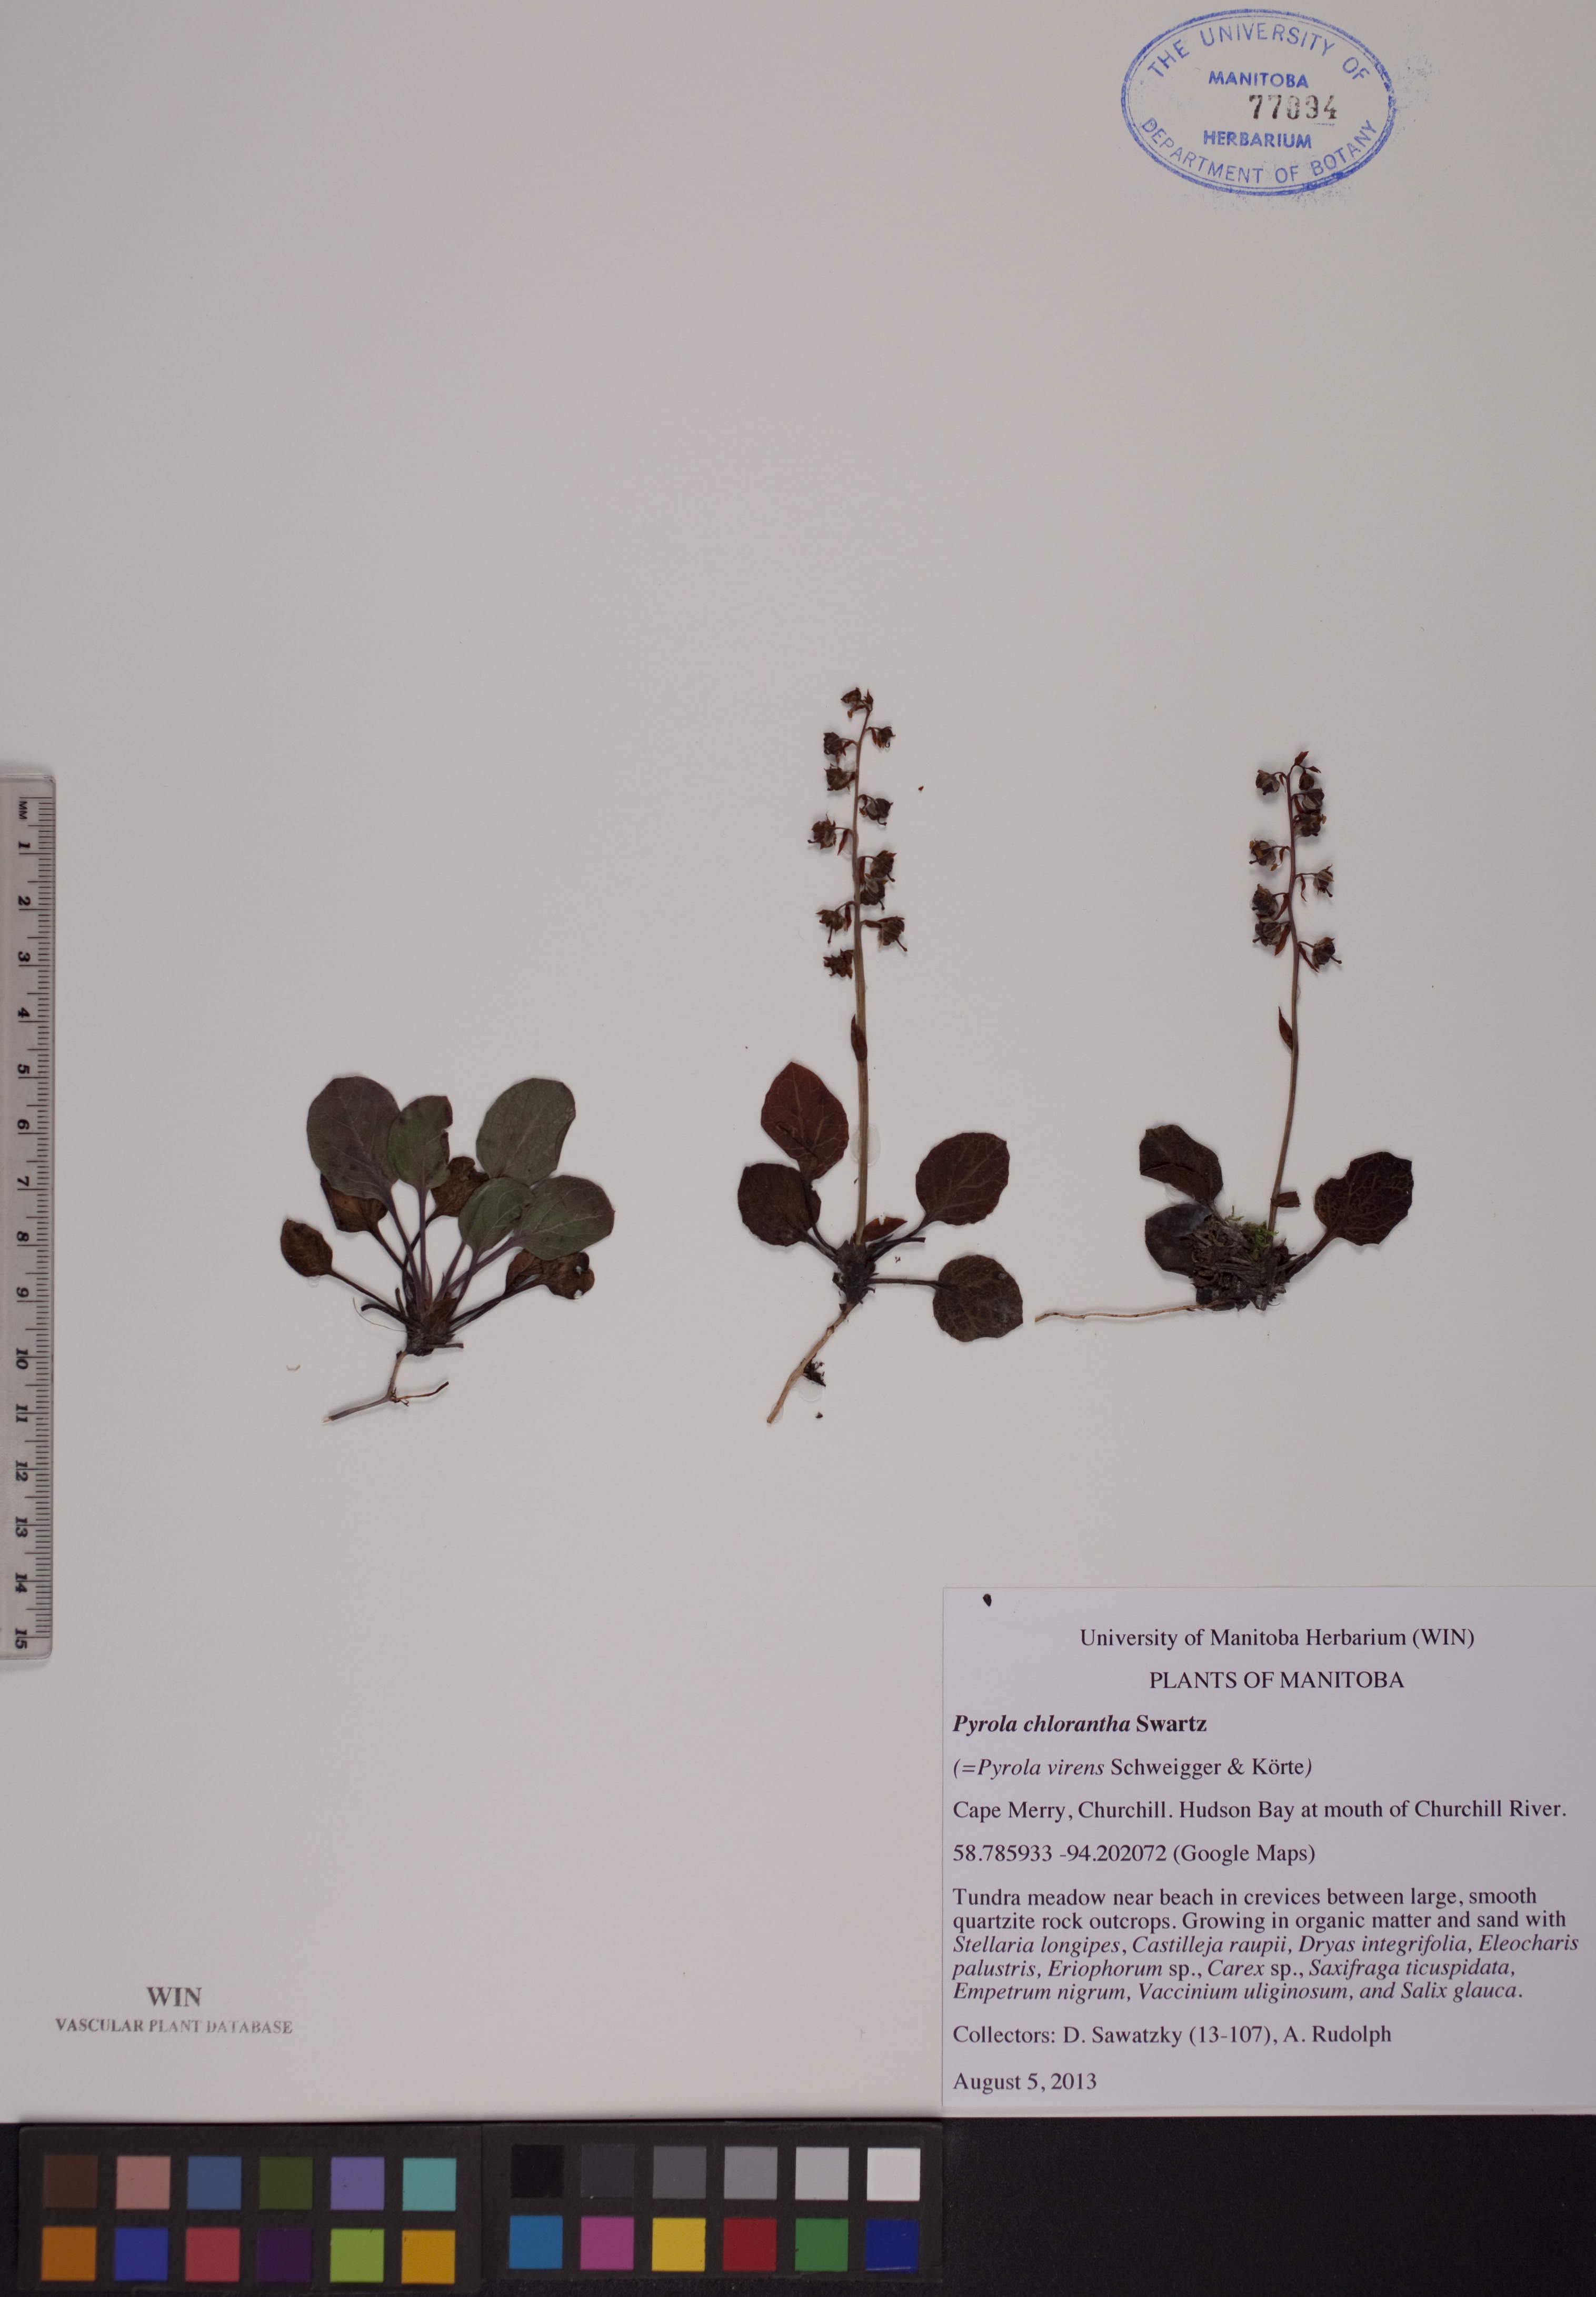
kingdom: Plantae
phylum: Tracheophyta
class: Magnoliopsida
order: Ericales
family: Ericaceae
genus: Pyrola
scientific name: Pyrola chlorantha
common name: Green wintergreen
